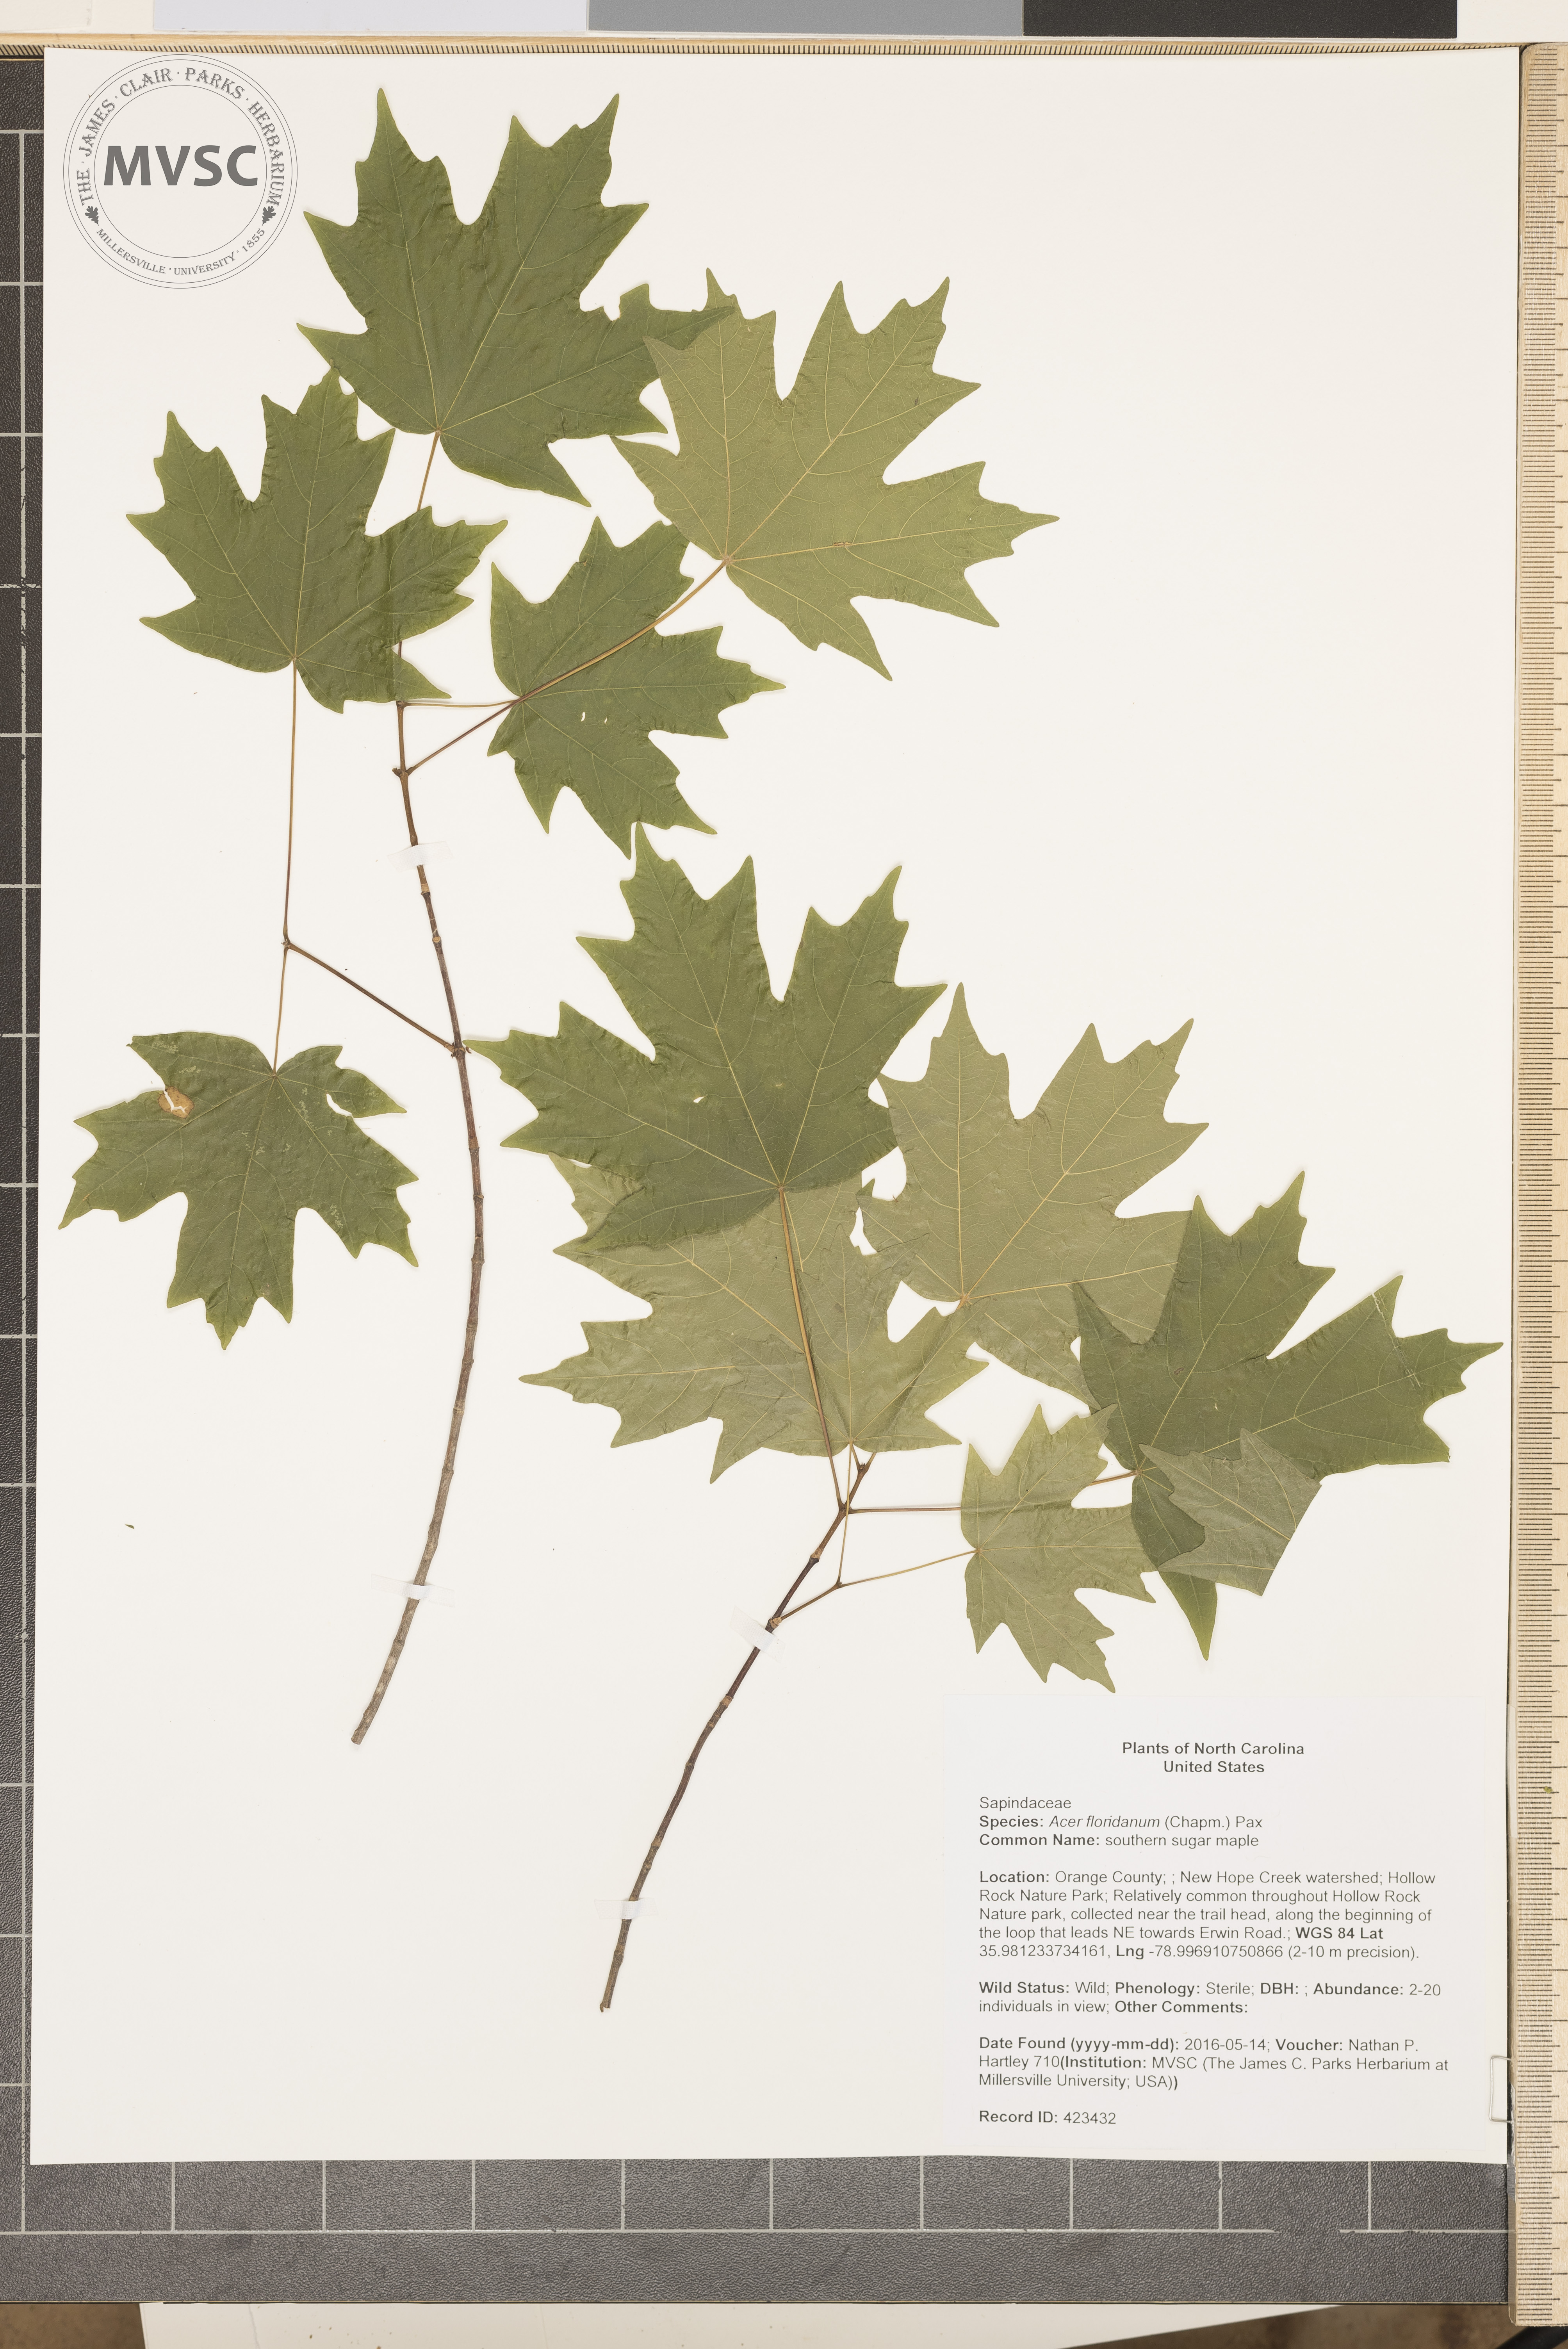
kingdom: Plantae
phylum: Tracheophyta
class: Magnoliopsida
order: Sapindales
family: Sapindaceae
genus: Acer
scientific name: Acer barbatum
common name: southern sugar maple
